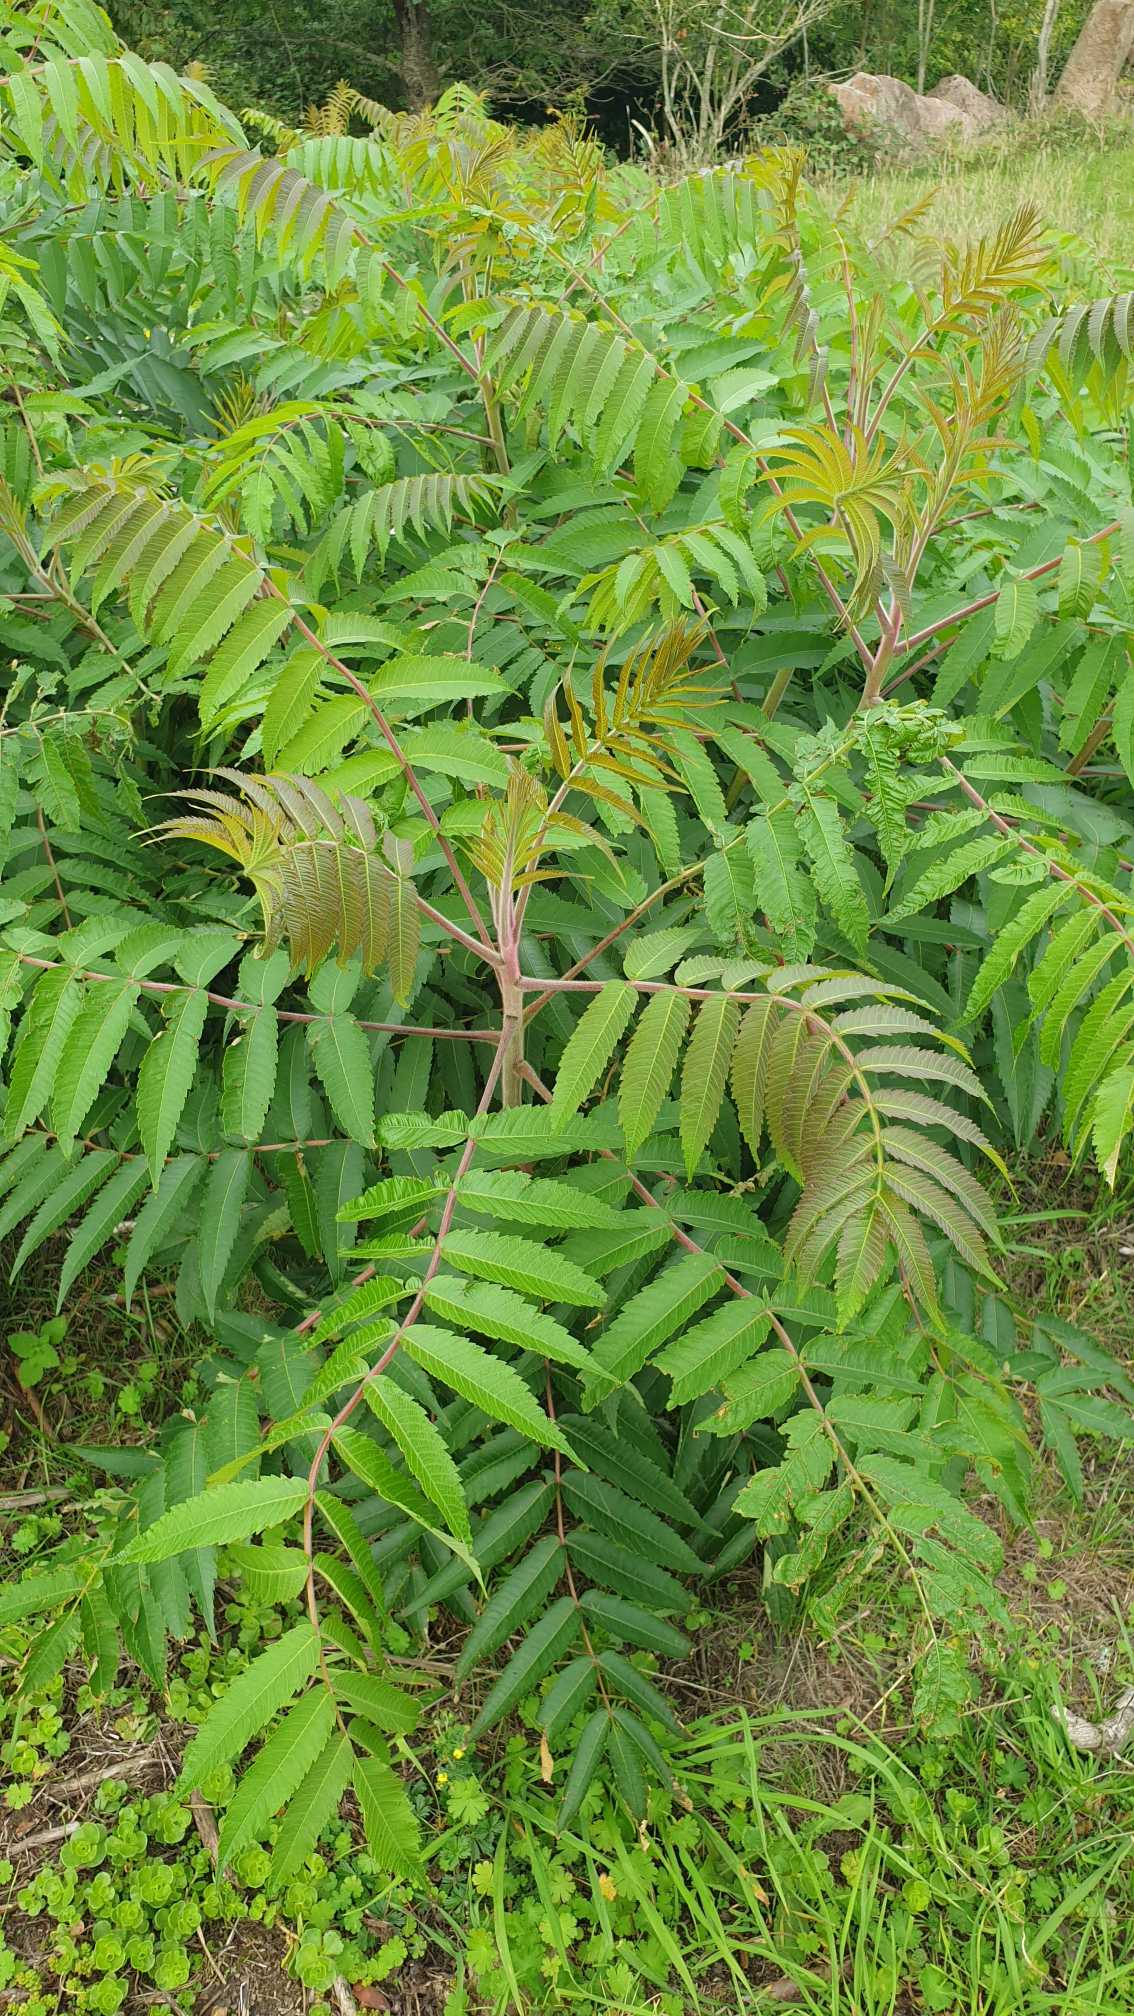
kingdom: Plantae
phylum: Tracheophyta
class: Magnoliopsida
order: Sapindales
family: Anacardiaceae
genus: Rhus
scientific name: Rhus typhina
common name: Hjortetaktræ
